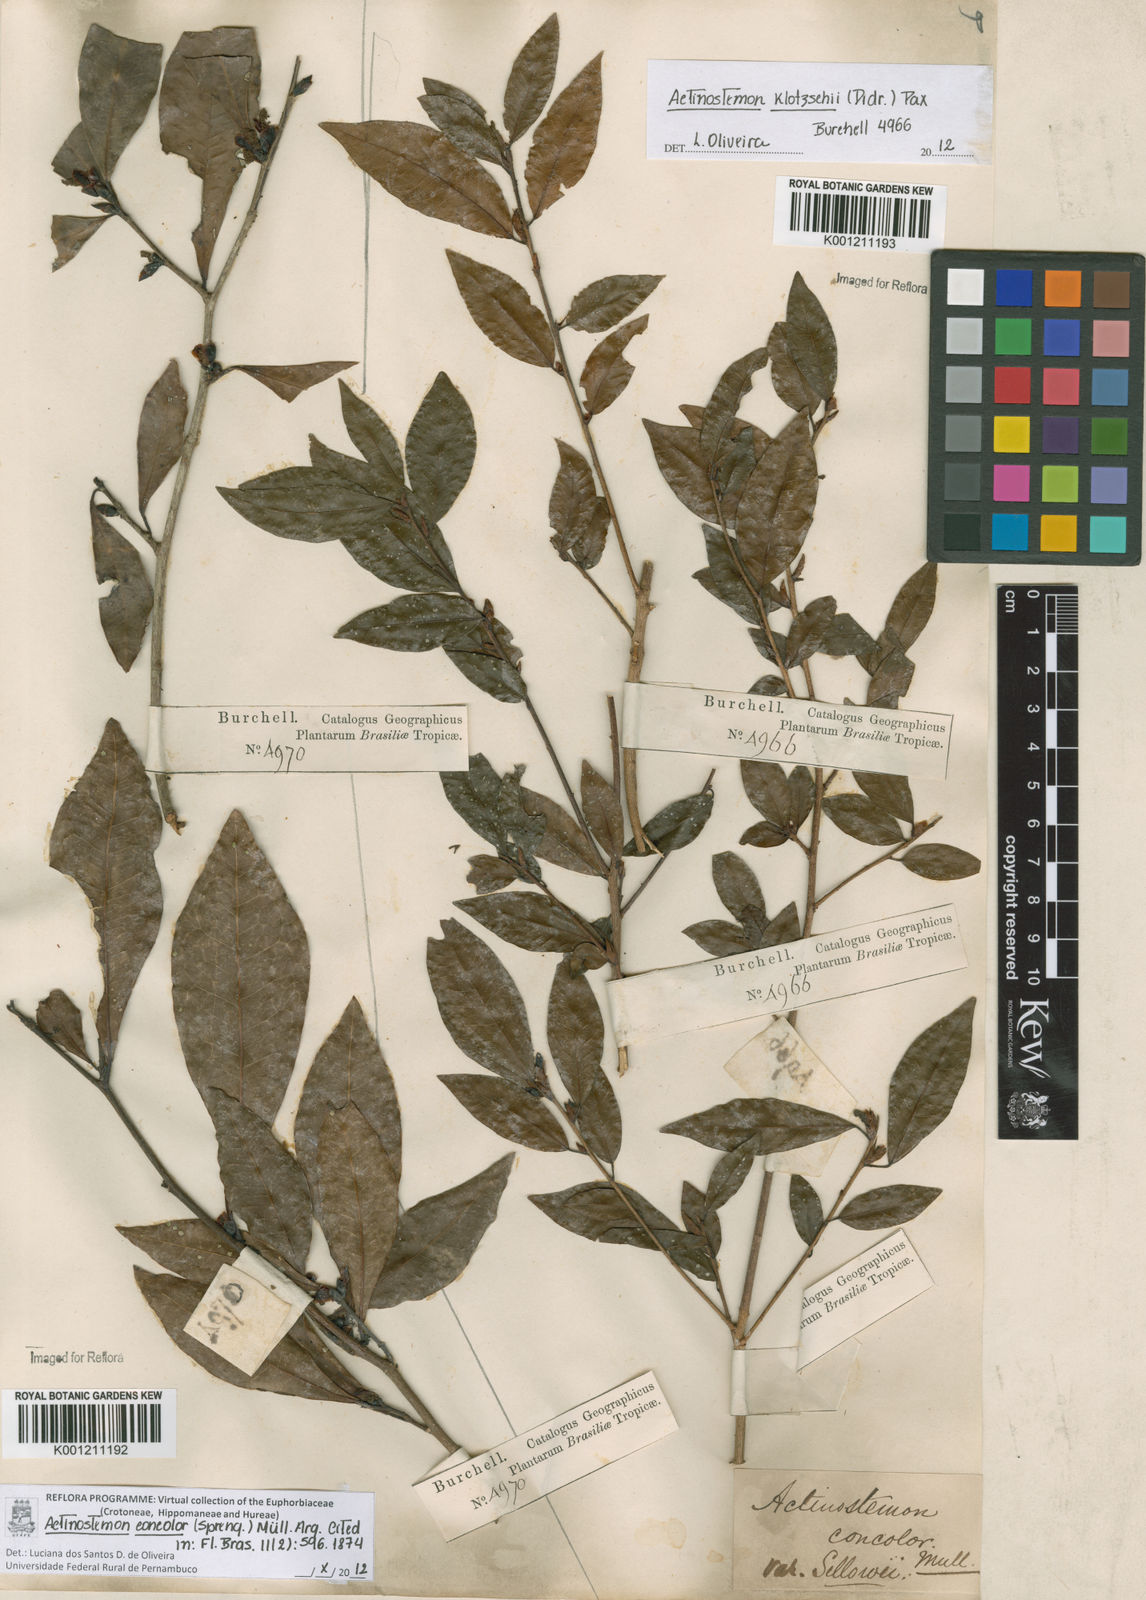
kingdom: Plantae
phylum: Tracheophyta
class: Magnoliopsida
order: Malpighiales
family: Euphorbiaceae
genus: Actinostemon
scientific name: Actinostemon
